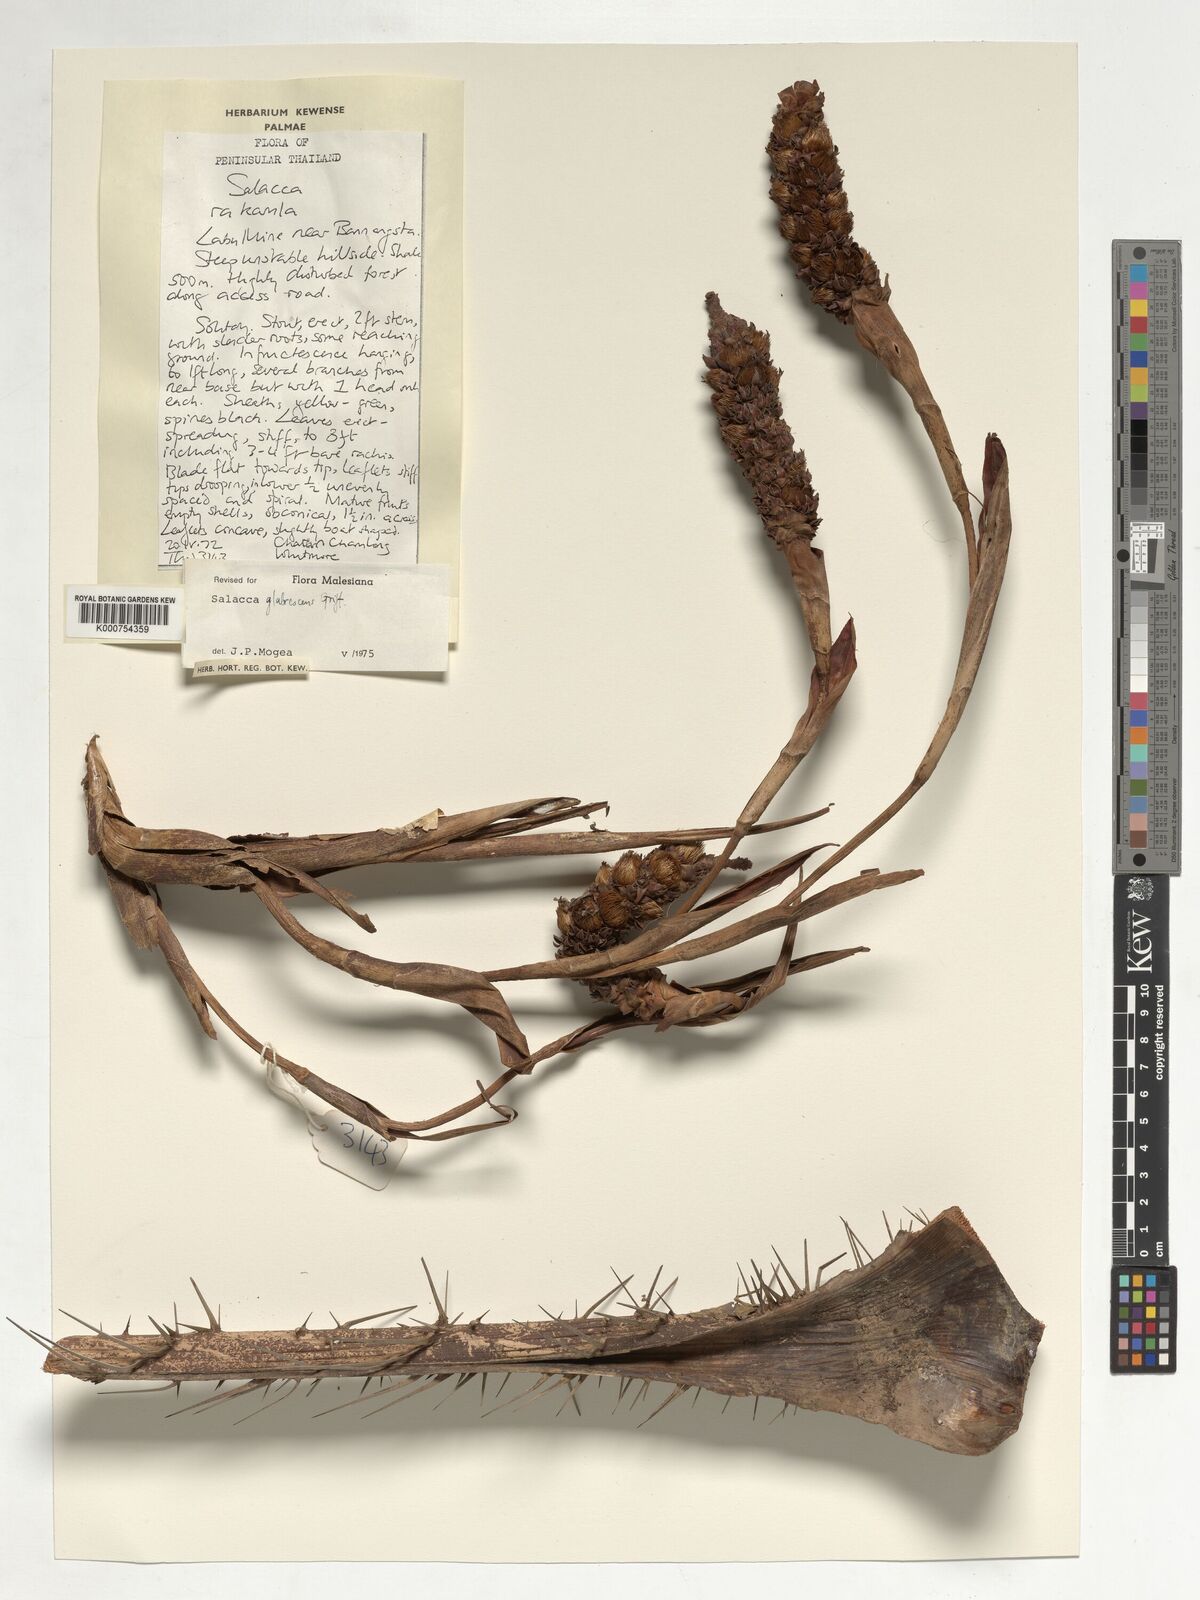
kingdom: Plantae
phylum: Tracheophyta
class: Liliopsida
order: Arecales
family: Arecaceae
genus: Salacca
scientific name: Salacca glabrescens
